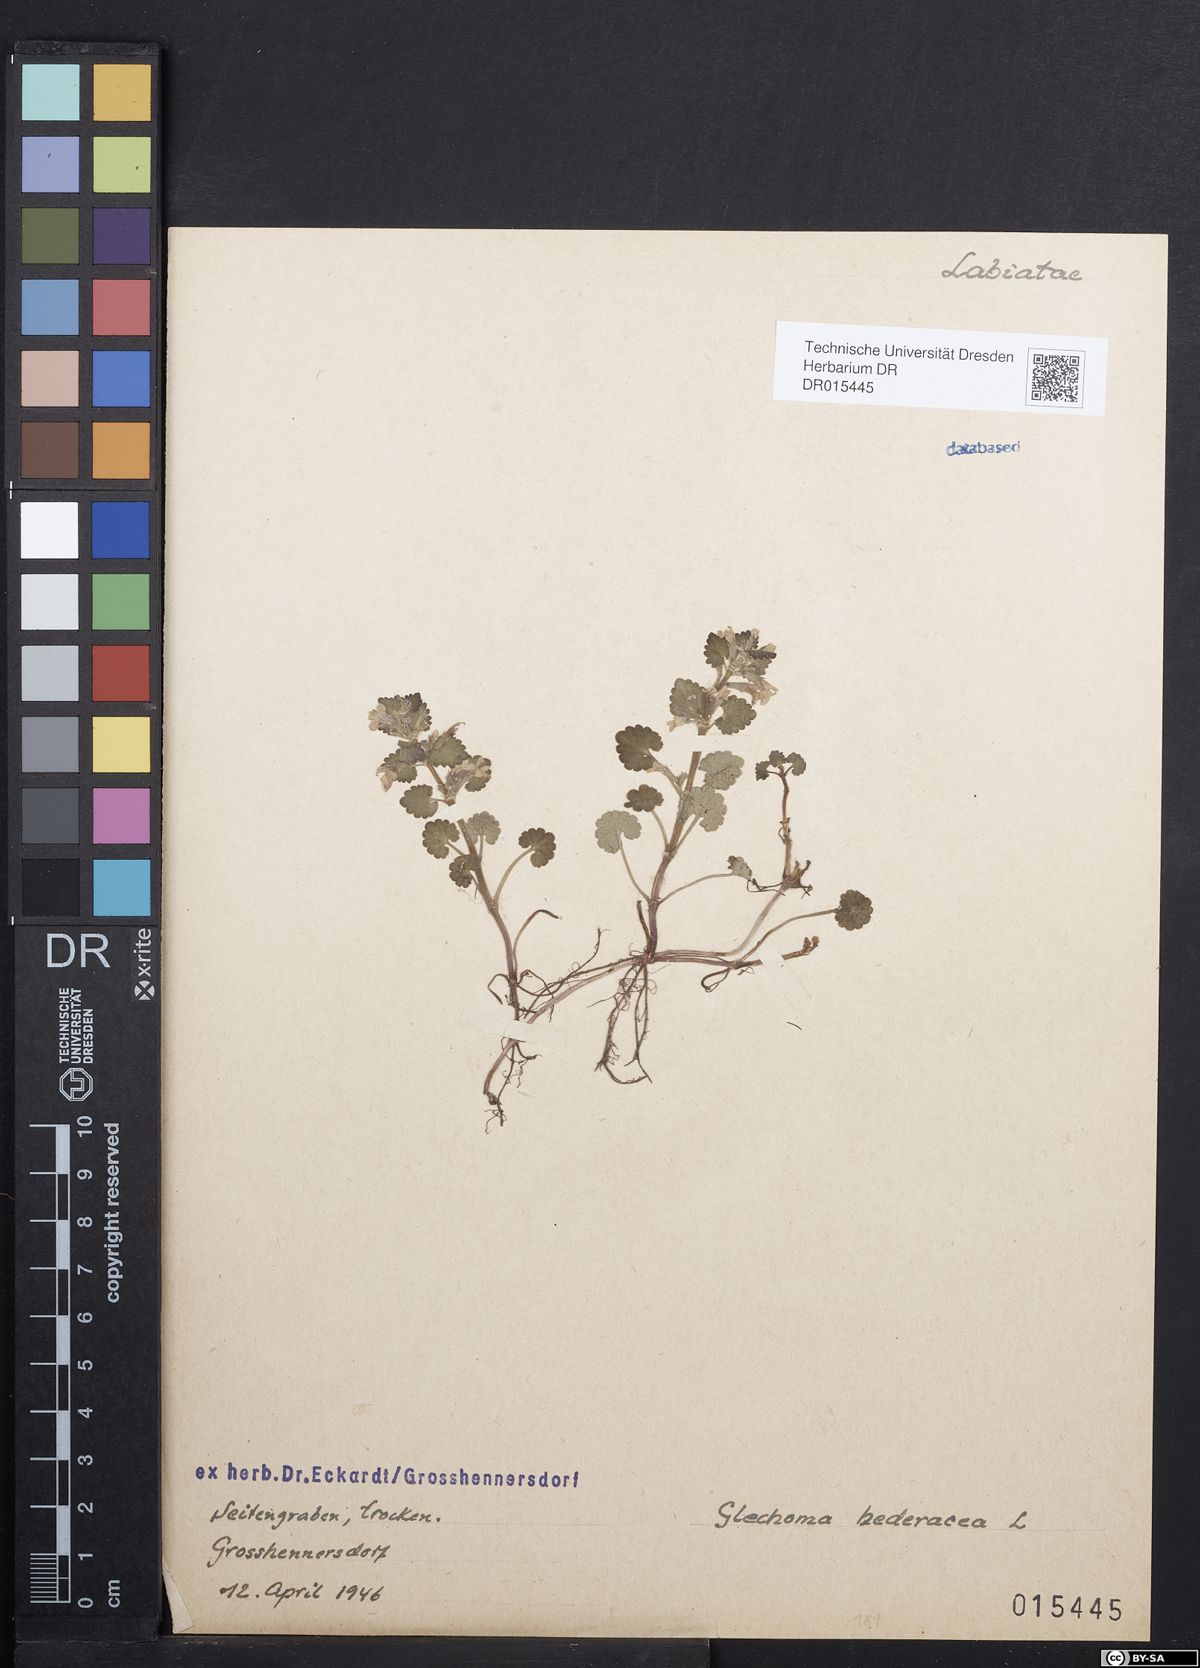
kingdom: Plantae
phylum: Tracheophyta
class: Magnoliopsida
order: Lamiales
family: Lamiaceae
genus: Glechoma
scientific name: Glechoma hederacea
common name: Ground ivy
